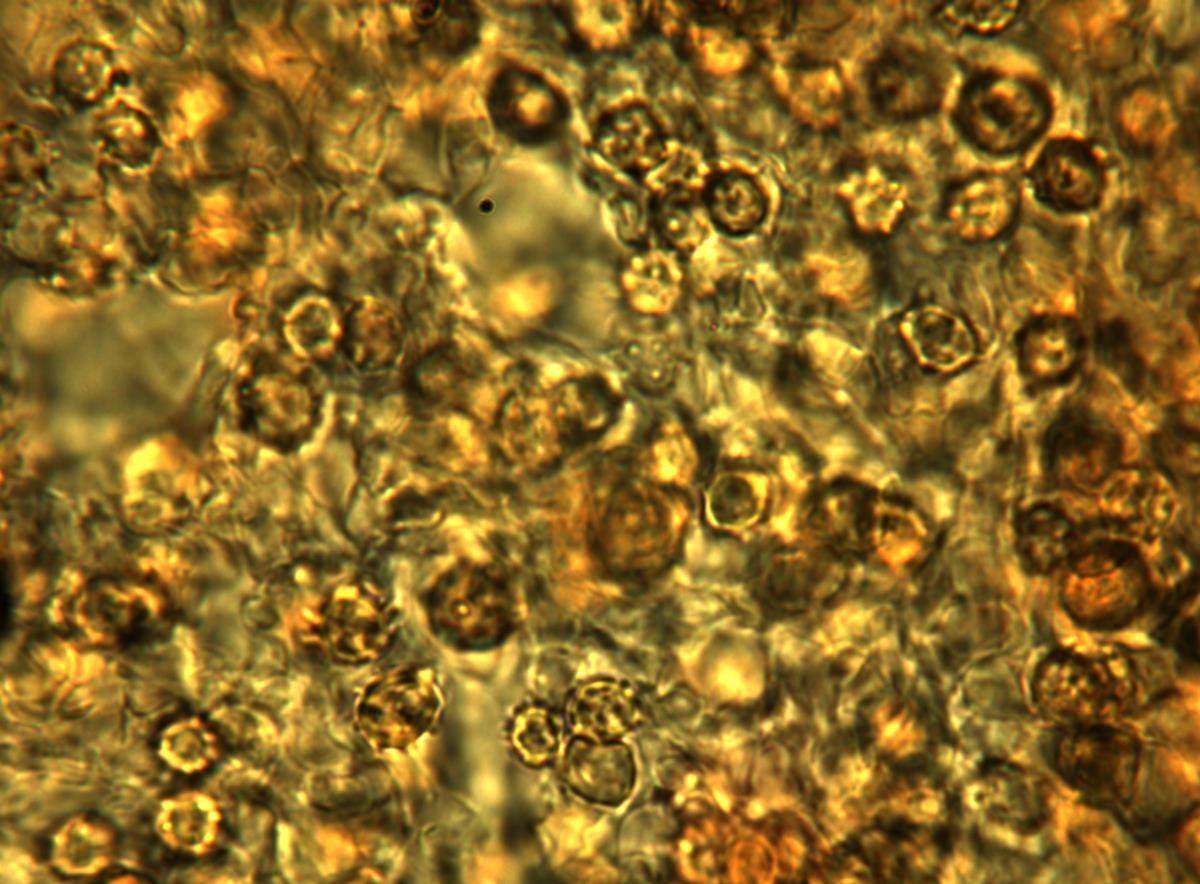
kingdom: Fungi
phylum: Basidiomycota
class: Agaricomycetes
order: Agaricales
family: Hydnangiaceae
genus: Hydnangium
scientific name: Hydnangium
